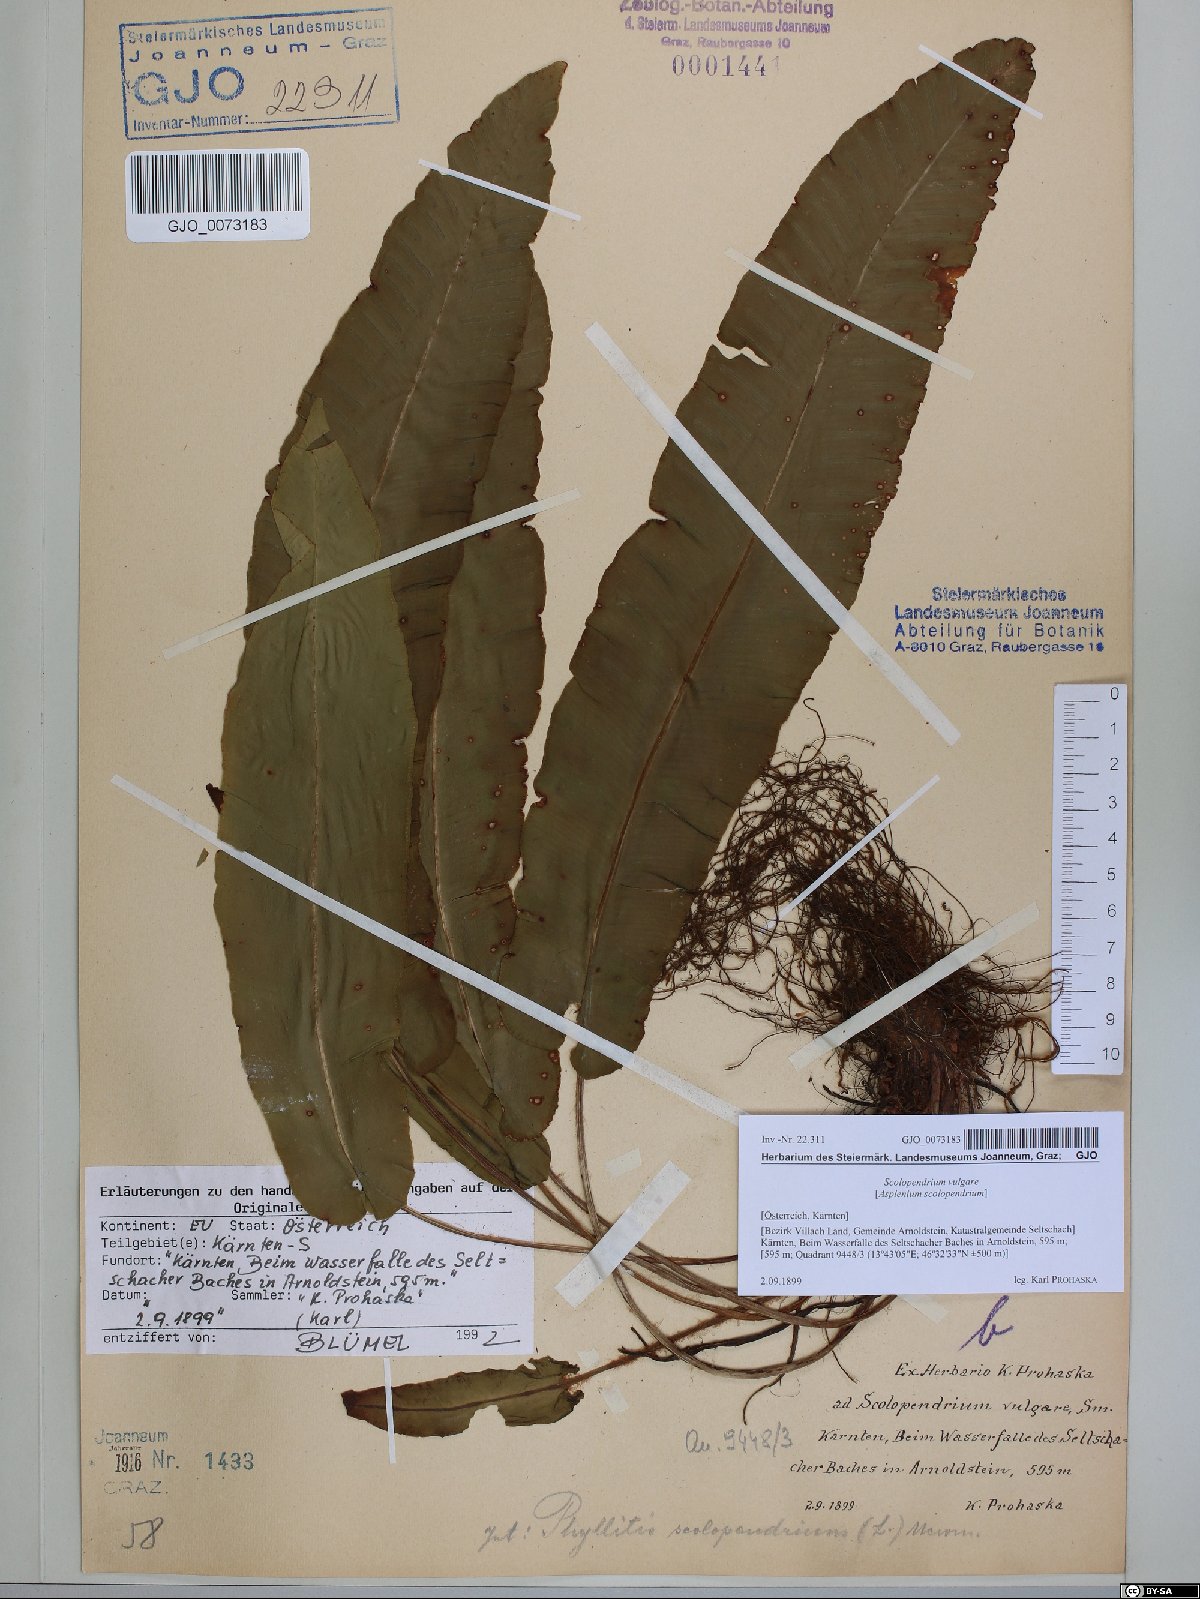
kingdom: Plantae
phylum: Tracheophyta
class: Polypodiopsida
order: Polypodiales
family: Aspleniaceae
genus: Asplenium
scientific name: Asplenium scolopendrium
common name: Hart's-tongue fern
